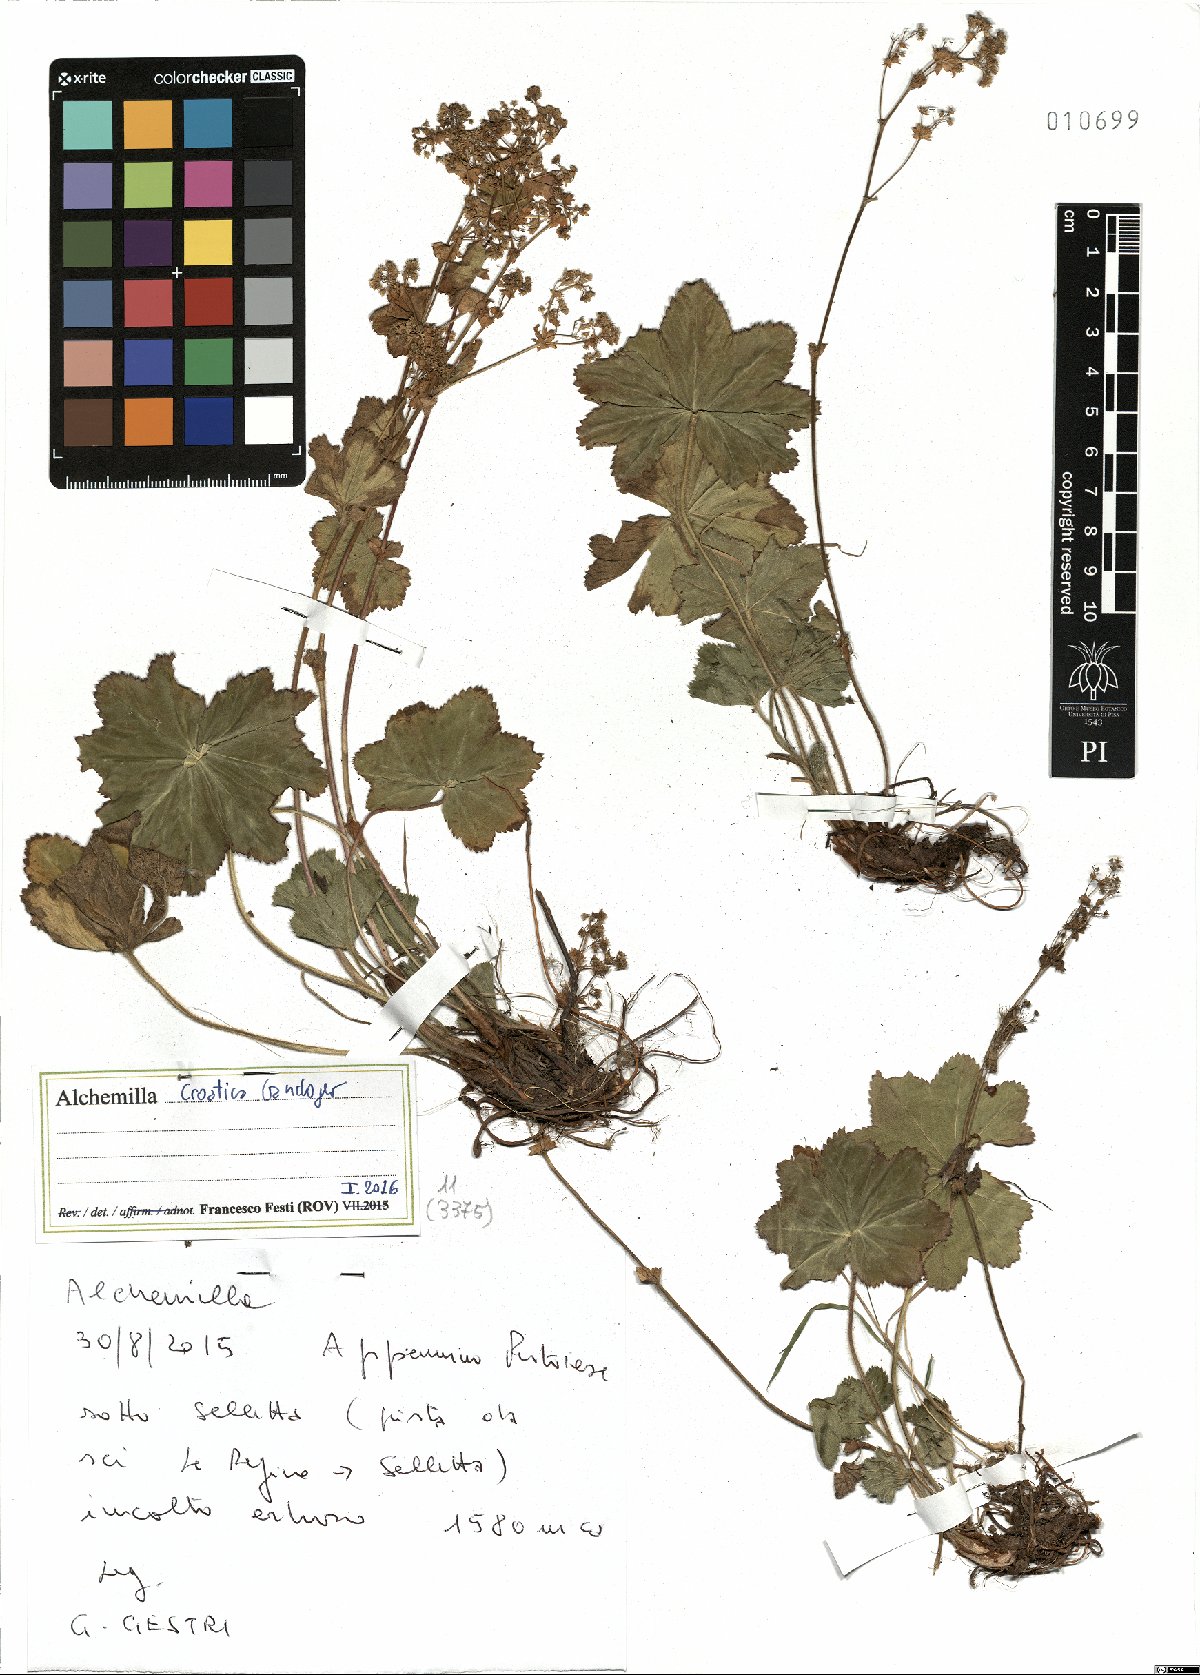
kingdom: Plantae
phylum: Tracheophyta
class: Magnoliopsida
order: Rosales
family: Rosaceae
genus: Alchemilla
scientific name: Alchemilla croatica
